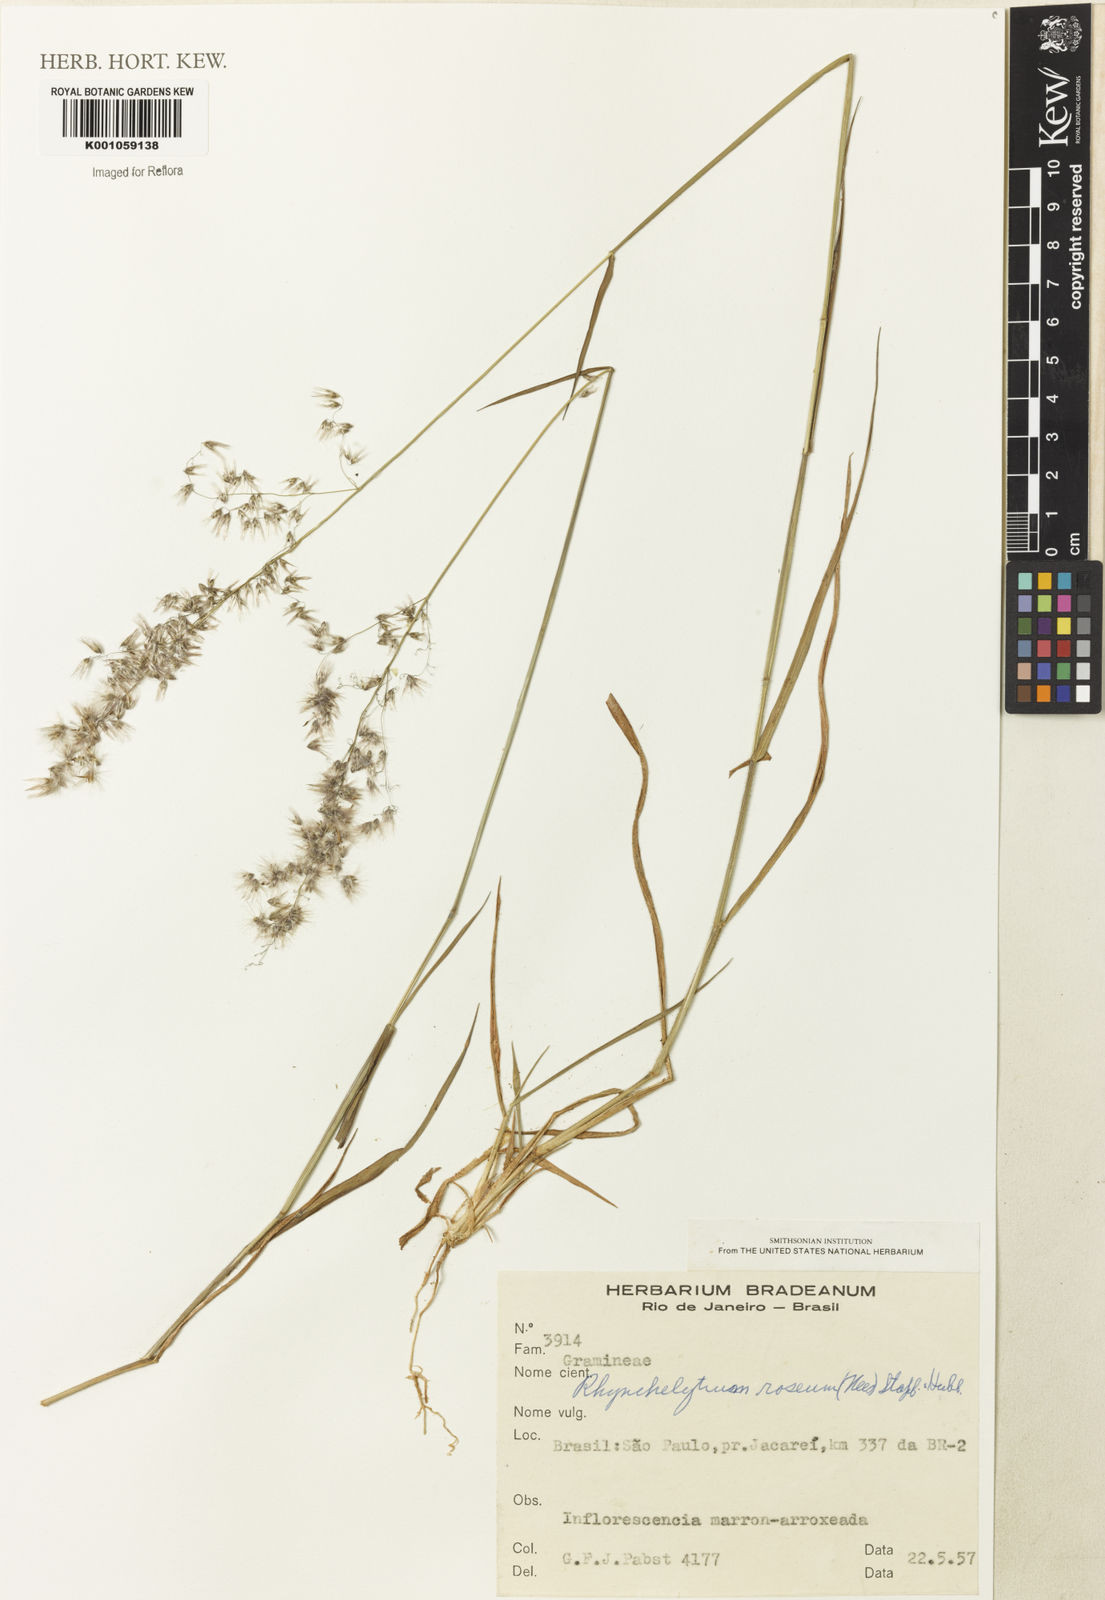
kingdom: Plantae
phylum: Tracheophyta
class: Liliopsida
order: Poales
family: Poaceae
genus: Melinis
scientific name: Melinis repens
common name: Rose natal grass
